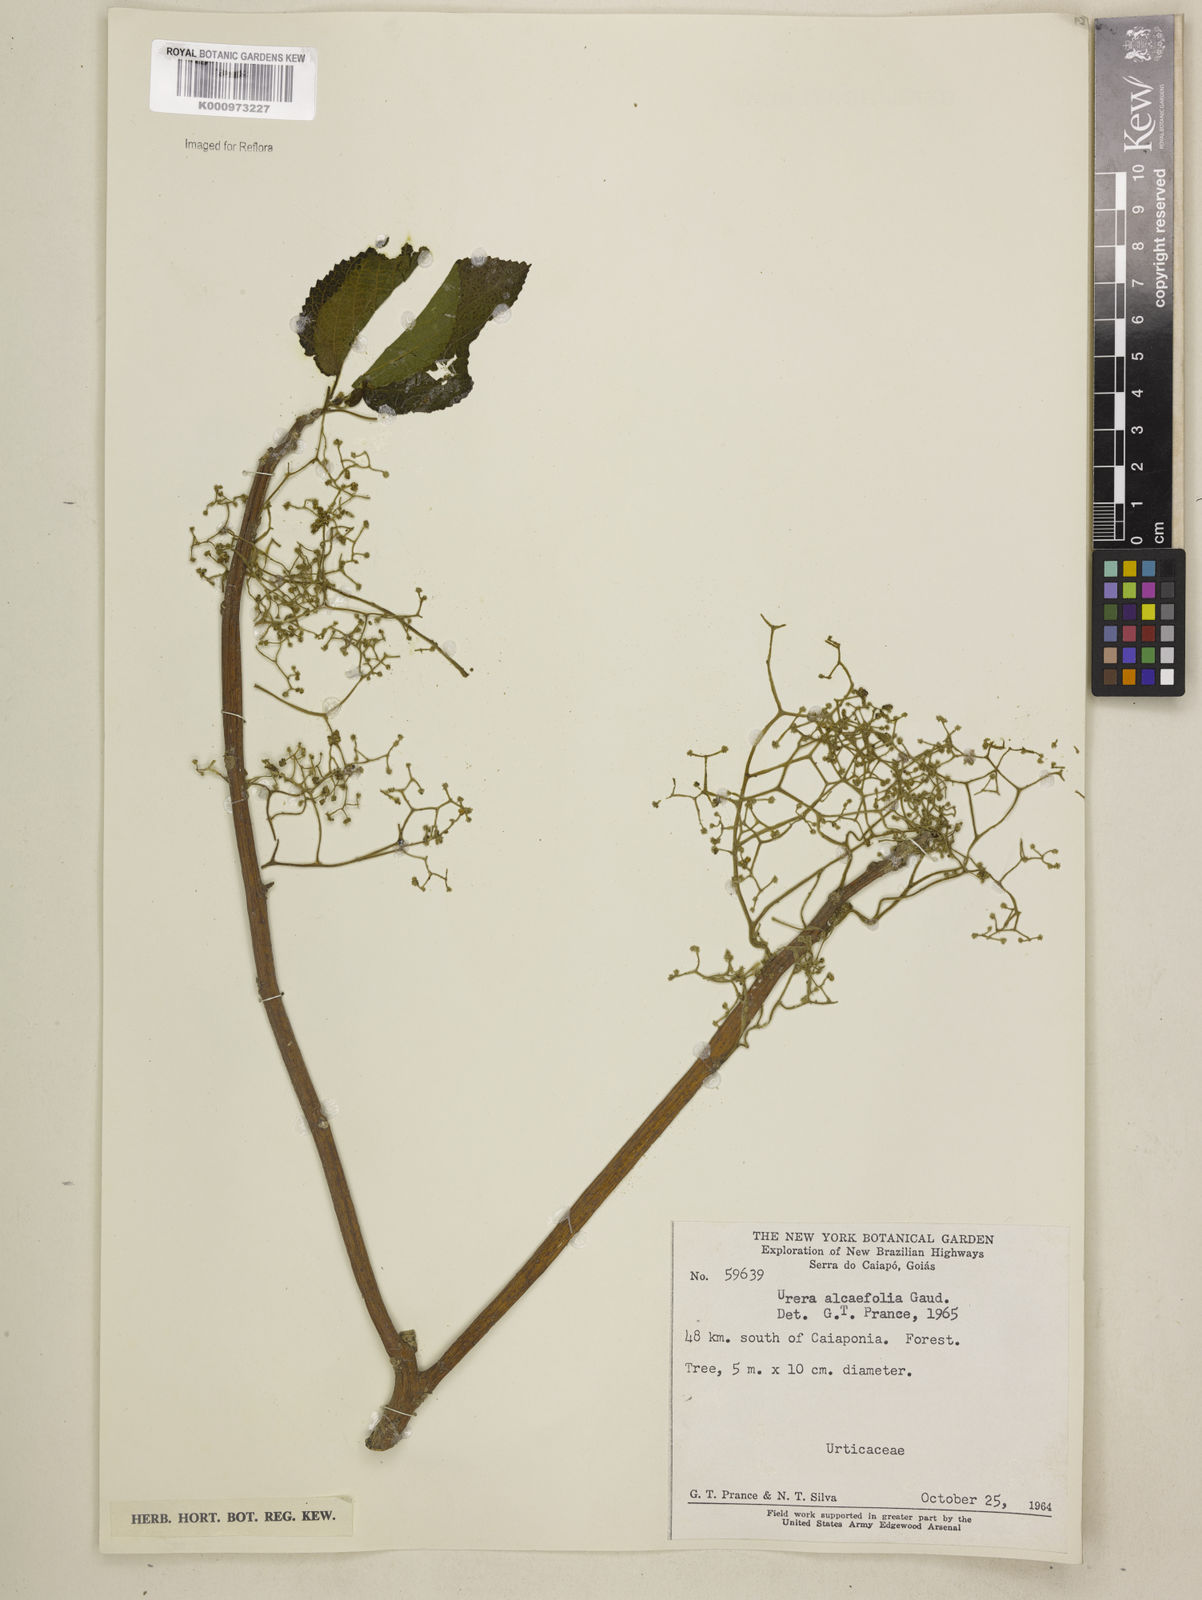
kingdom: Plantae
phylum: Tracheophyta
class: Magnoliopsida
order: Rosales
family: Urticaceae
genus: Urera
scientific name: Urera caracasana
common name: Flameberry
